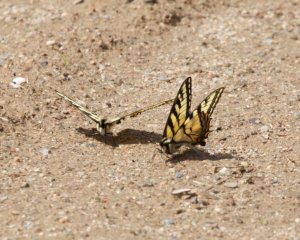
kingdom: Animalia
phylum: Arthropoda
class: Insecta
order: Lepidoptera
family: Papilionidae
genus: Pterourus
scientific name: Pterourus canadensis
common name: Canadian Tiger Swallowtail
